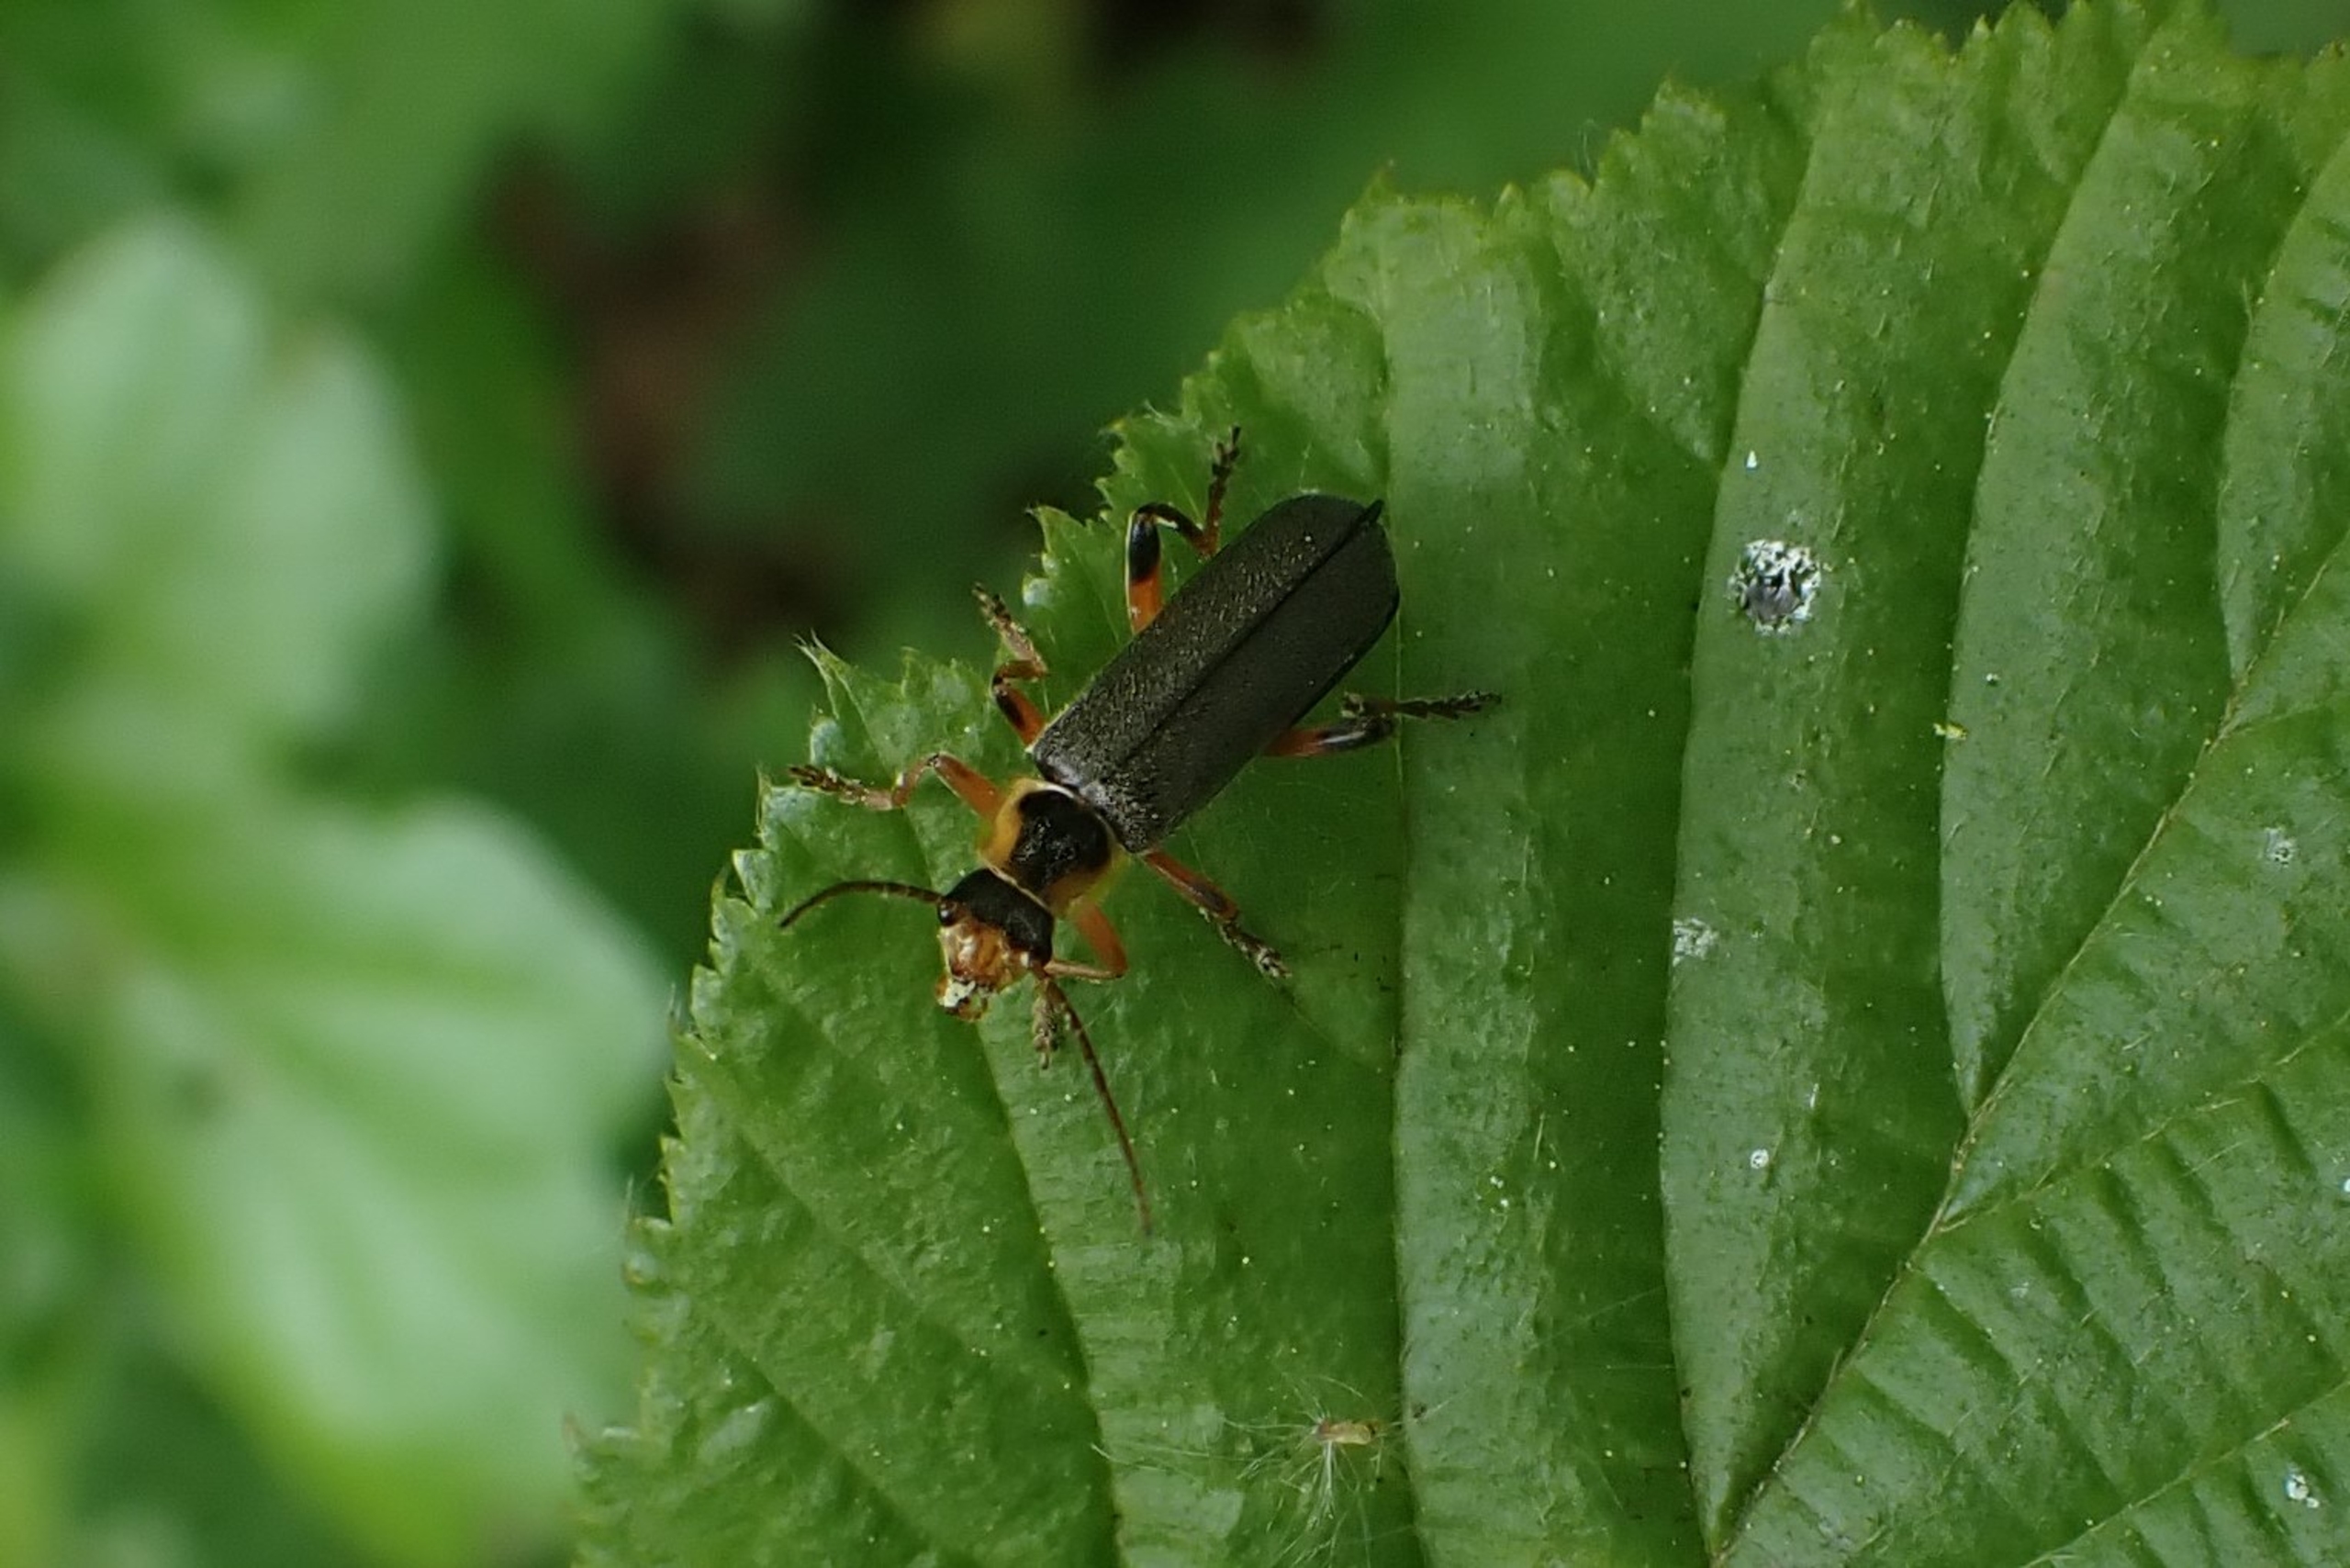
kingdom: Animalia
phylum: Arthropoda
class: Insecta
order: Coleoptera
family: Cantharidae
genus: Cantharis
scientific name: Cantharis nigricans
